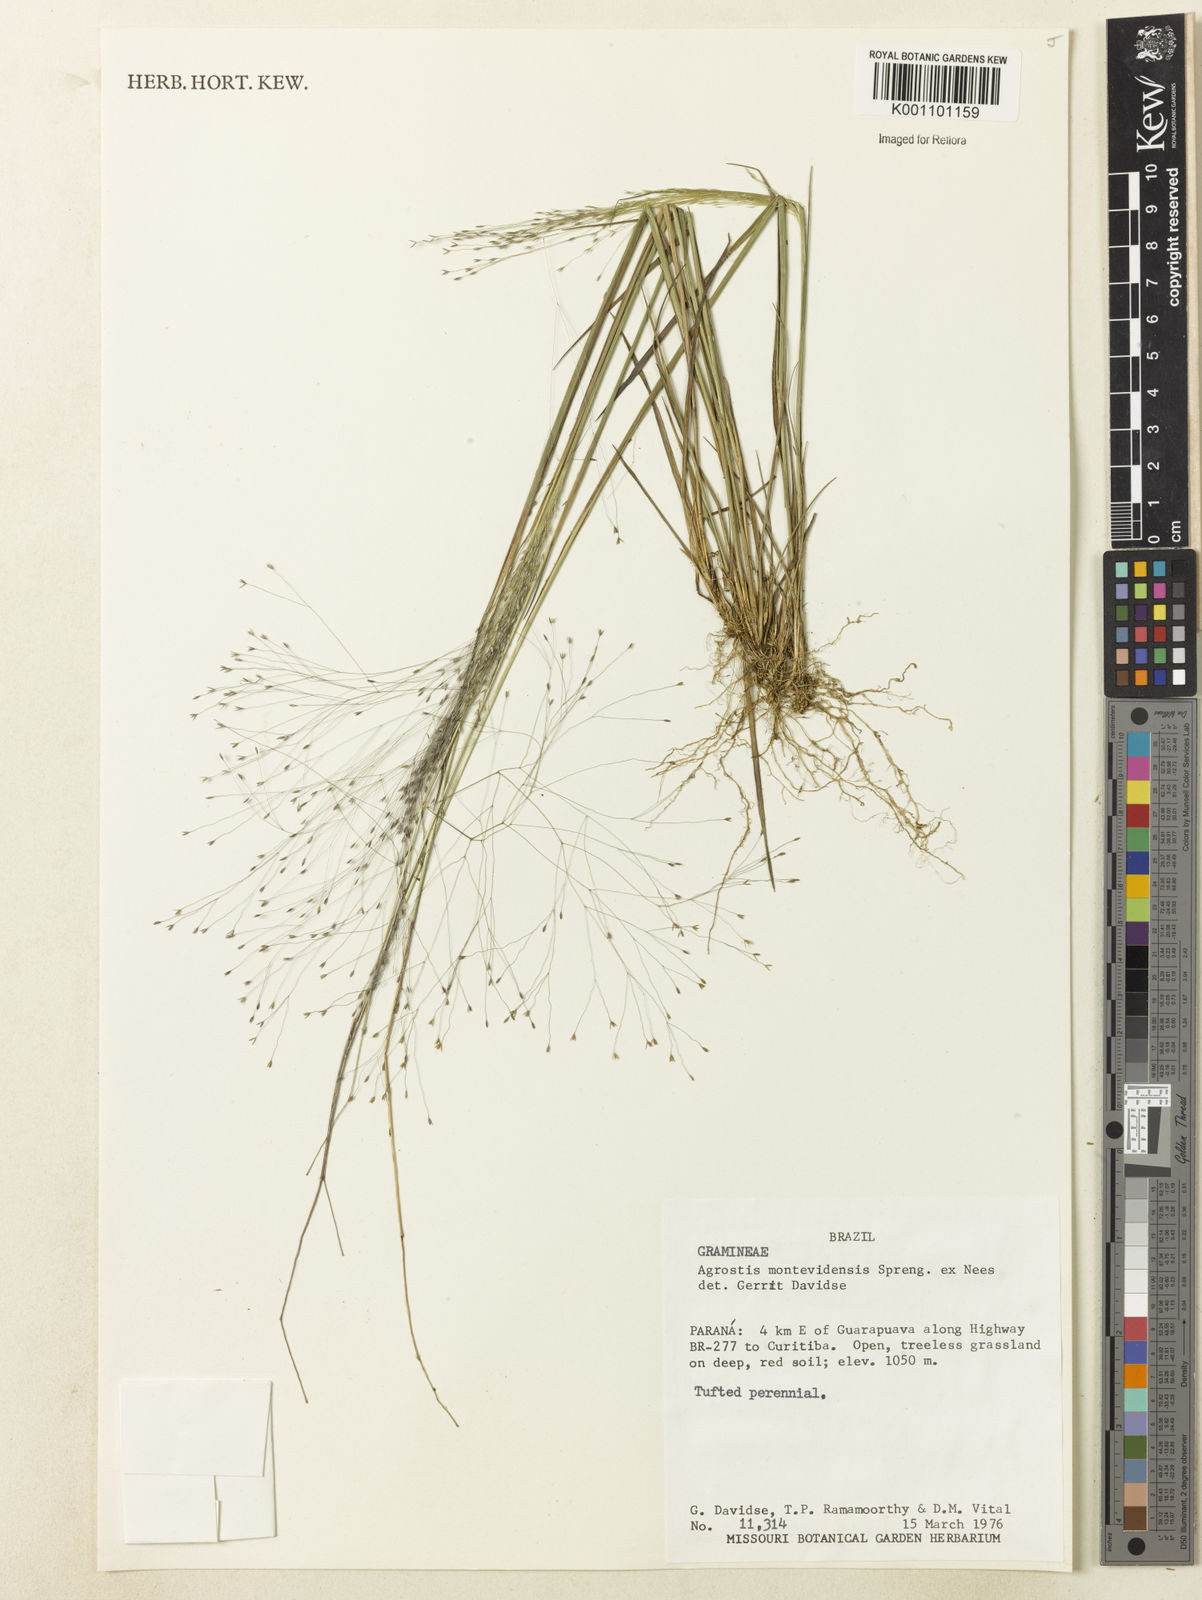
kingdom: Plantae
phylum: Tracheophyta
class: Liliopsida
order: Poales
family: Poaceae
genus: Agrostis
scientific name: Agrostis montevidensis
